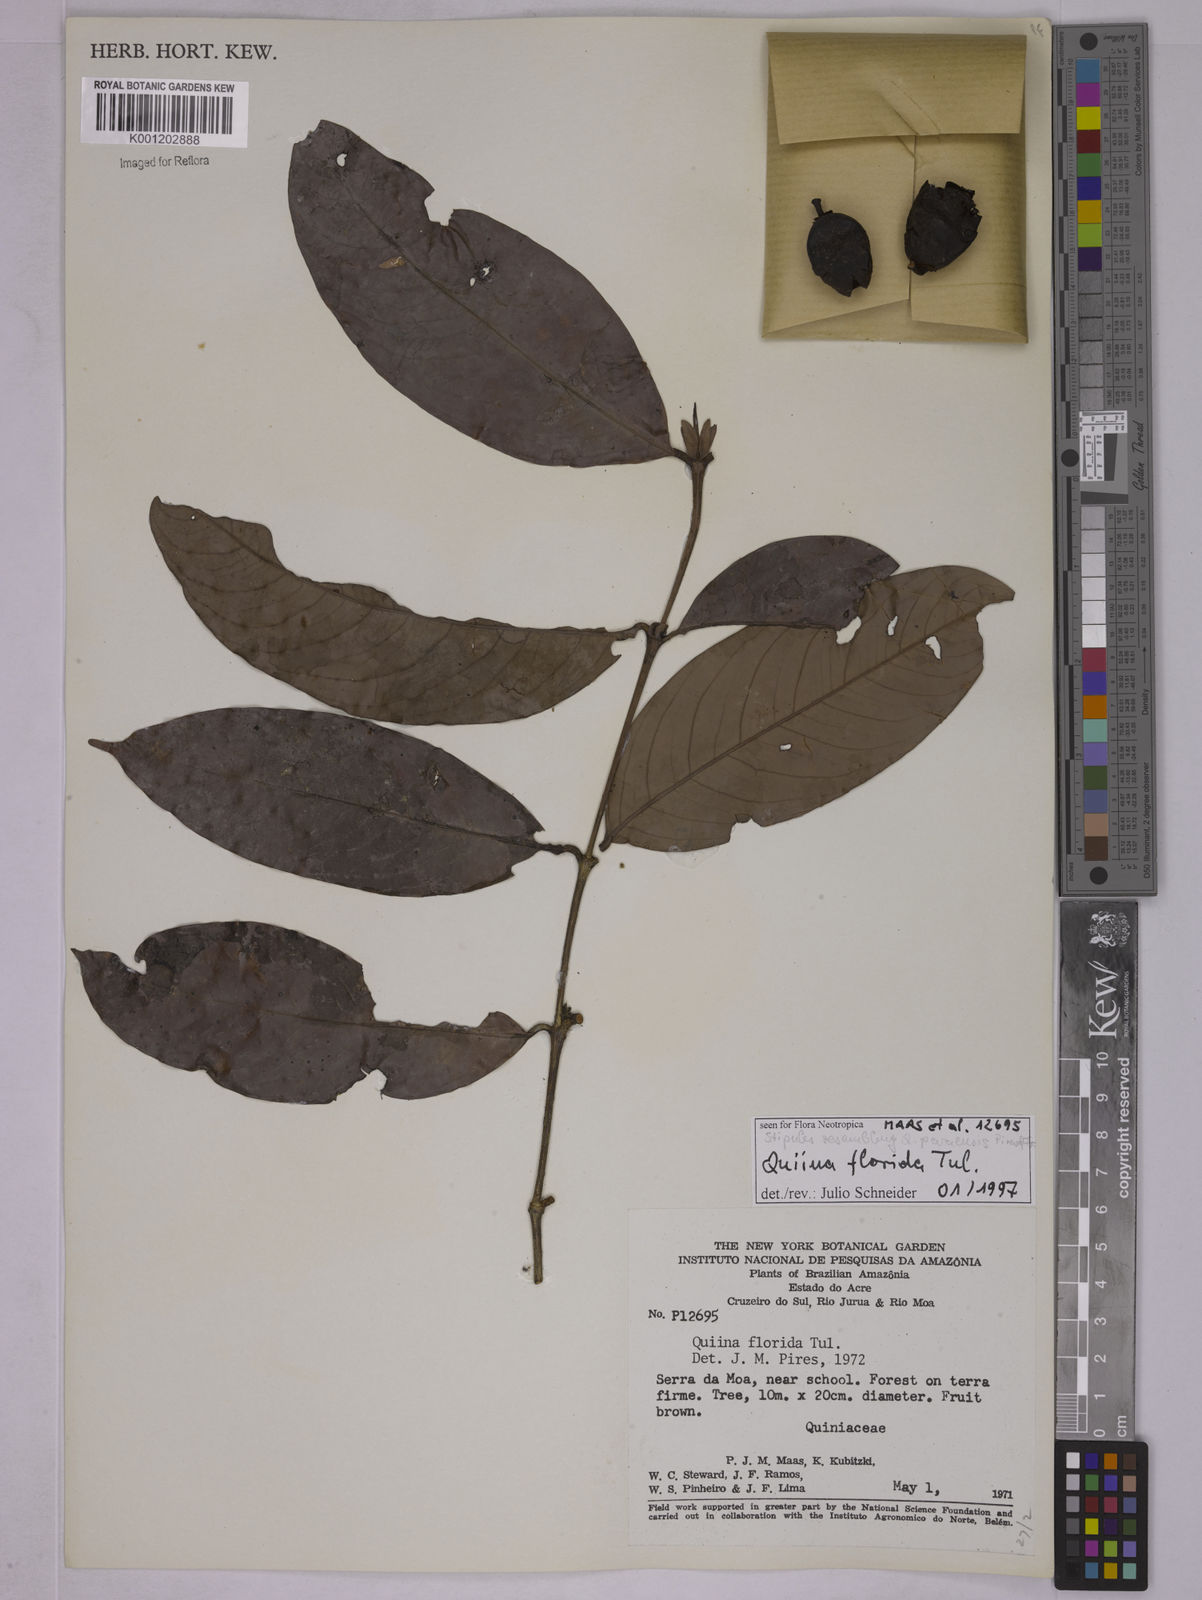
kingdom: Plantae
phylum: Tracheophyta
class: Magnoliopsida
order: Malpighiales
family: Quiinaceae
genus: Quiina
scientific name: Quiina florida
